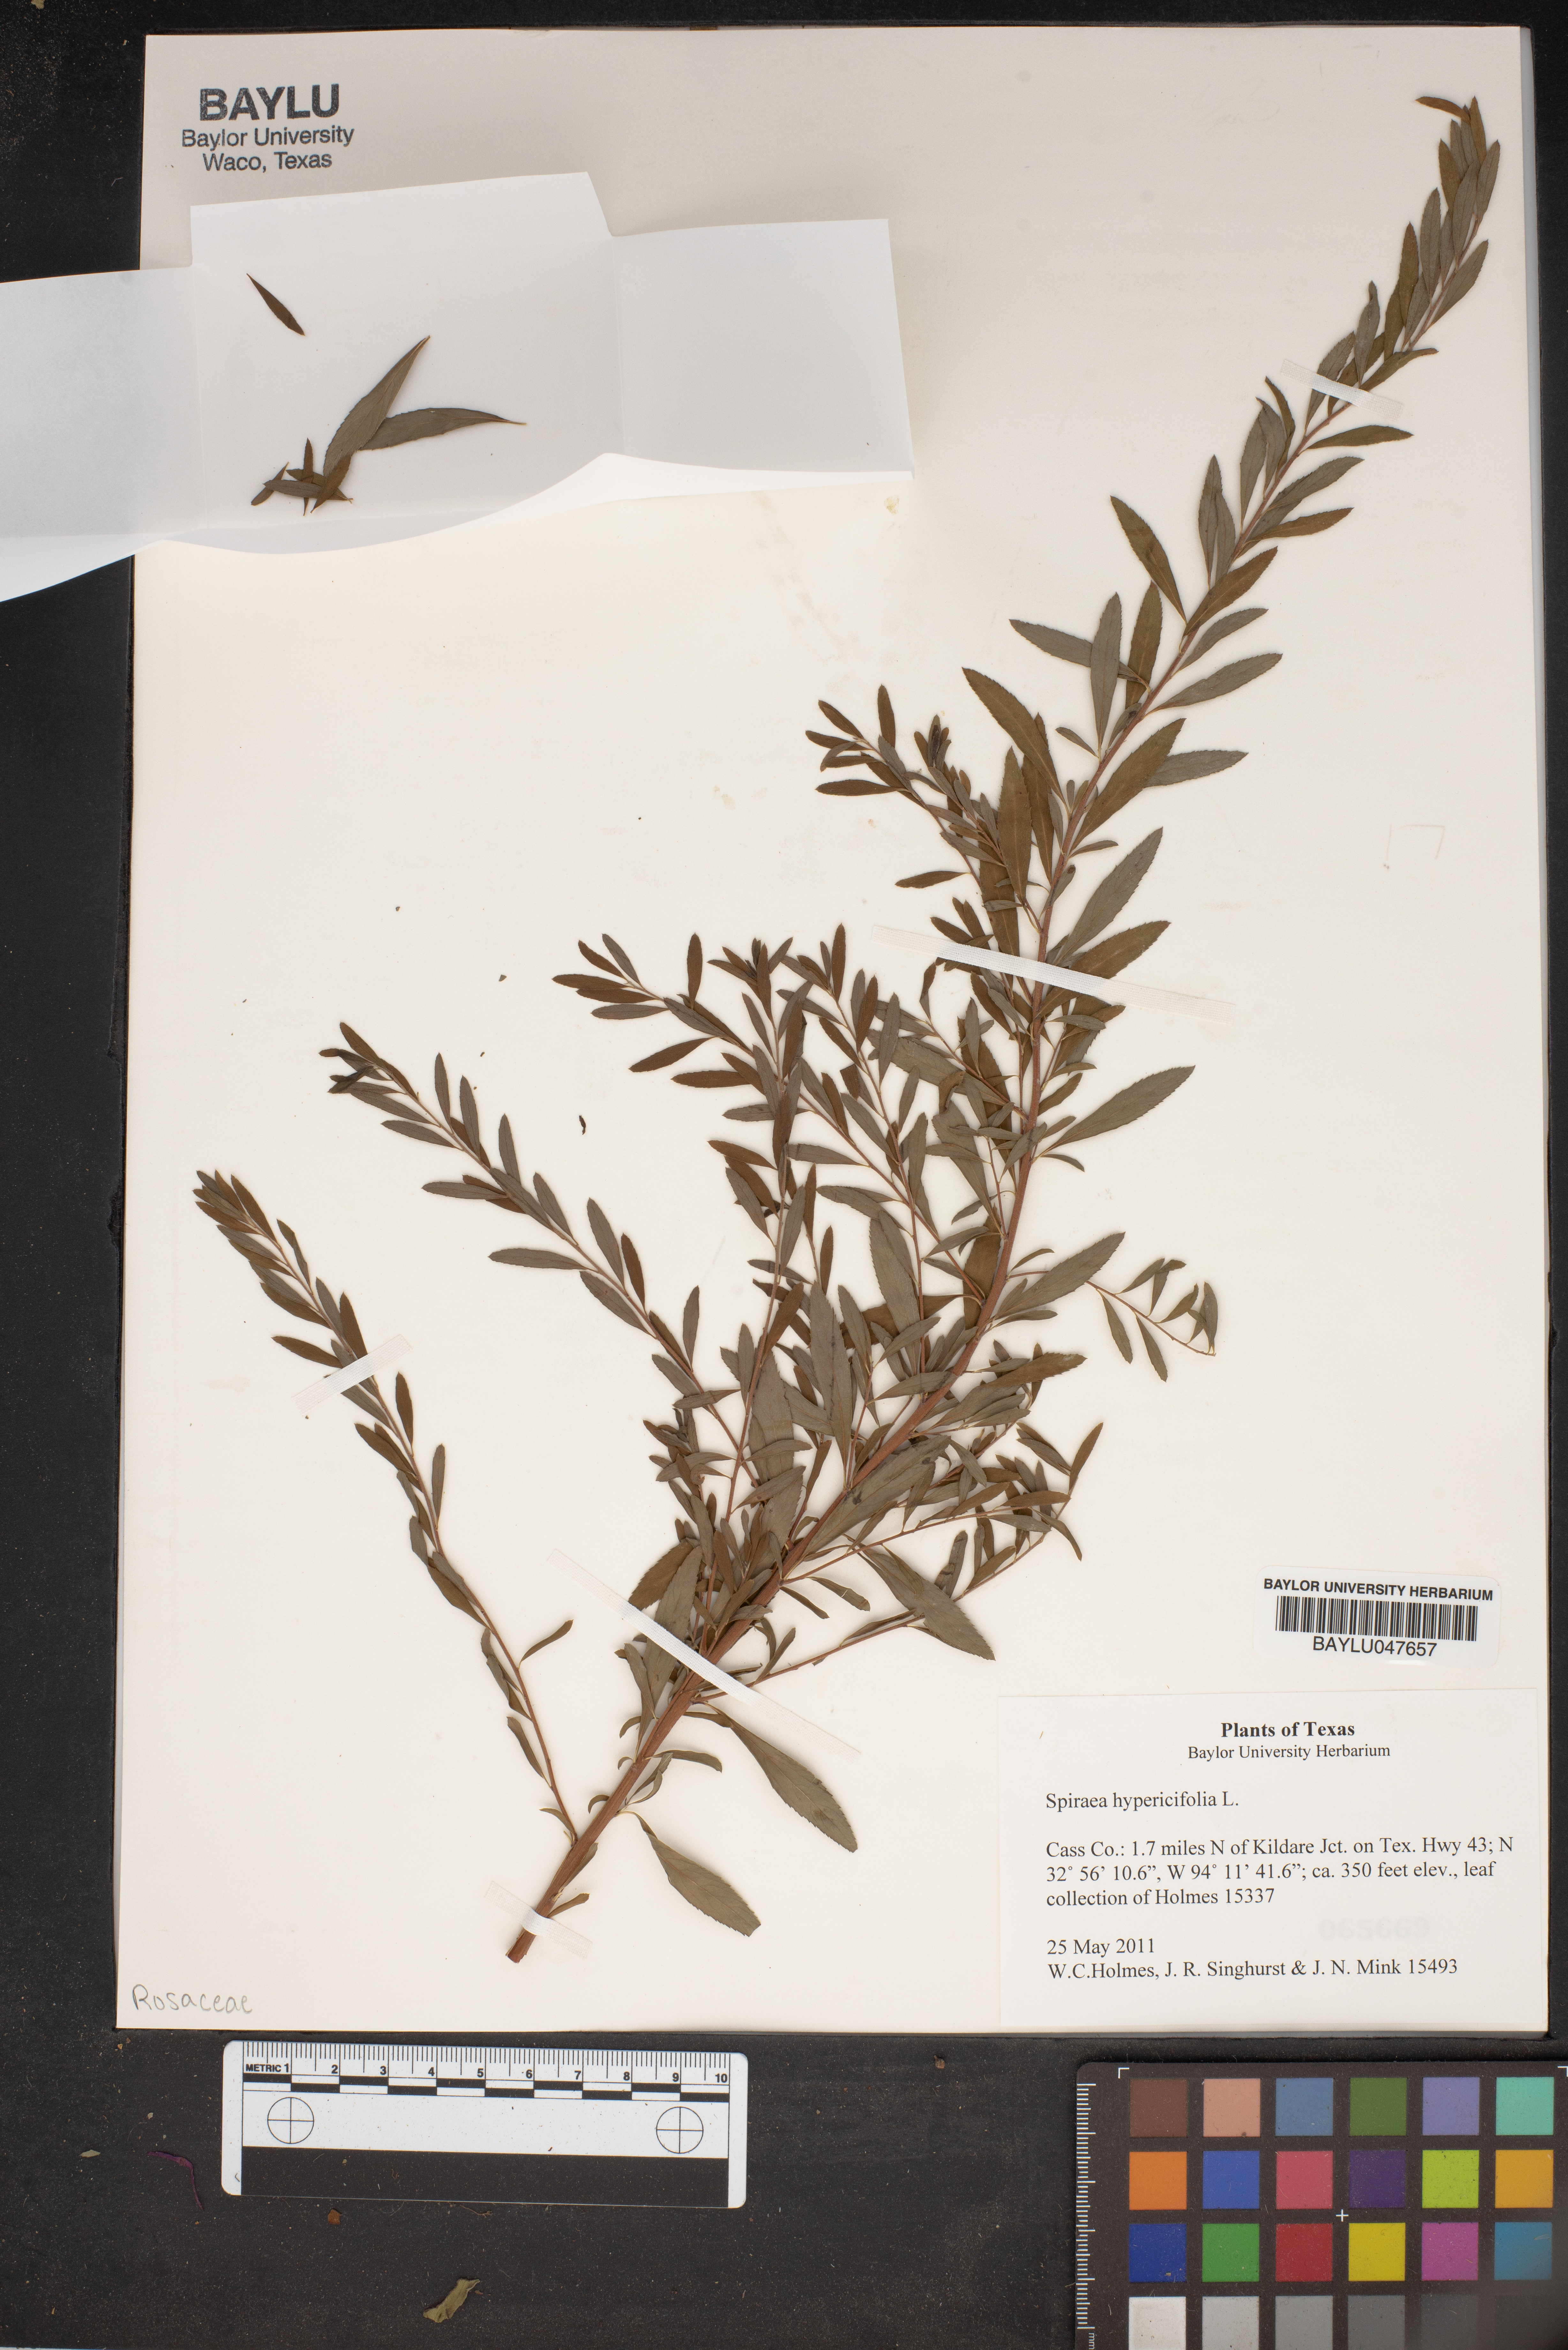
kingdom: Plantae
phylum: Tracheophyta
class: Magnoliopsida
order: Rosales
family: Rosaceae
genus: Spiraea
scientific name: Spiraea hypericifolia
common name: Iberian spirea
